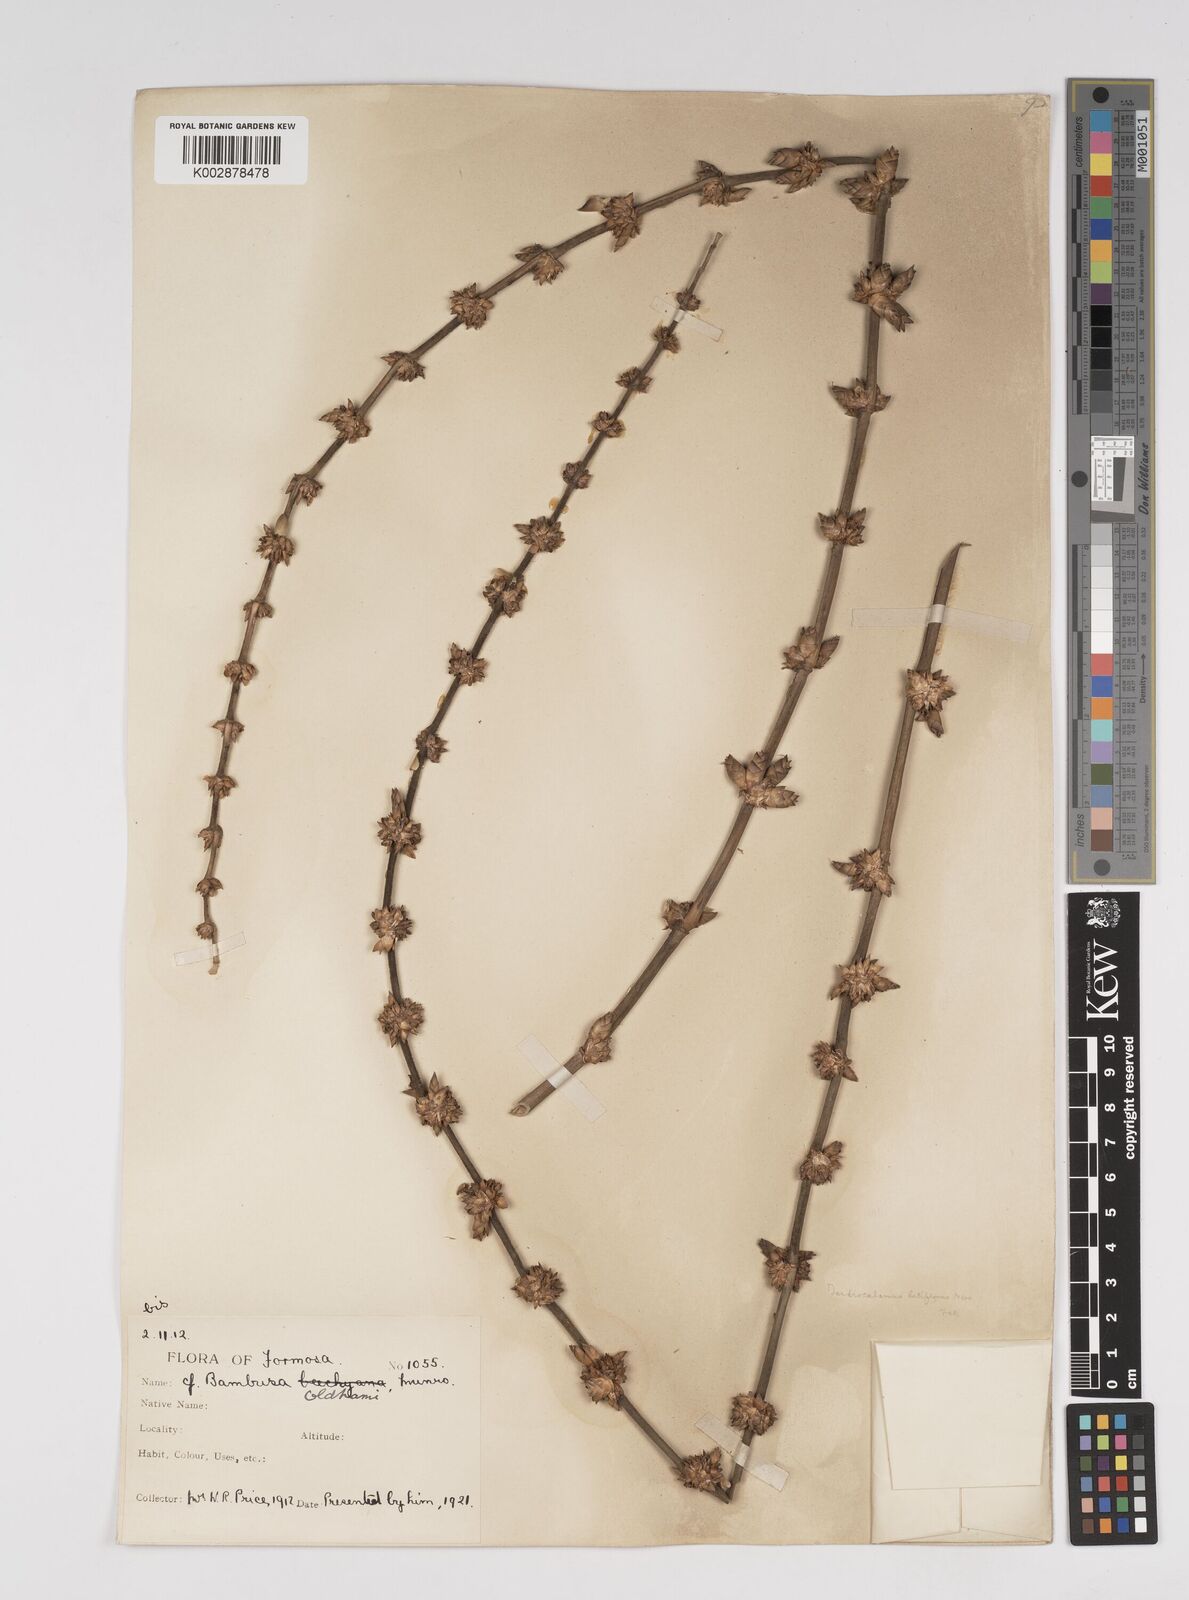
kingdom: Plantae
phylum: Tracheophyta
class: Liliopsida
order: Poales
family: Poaceae
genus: Dendrocalamus
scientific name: Dendrocalamus latiflorus
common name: Giant bamboo
